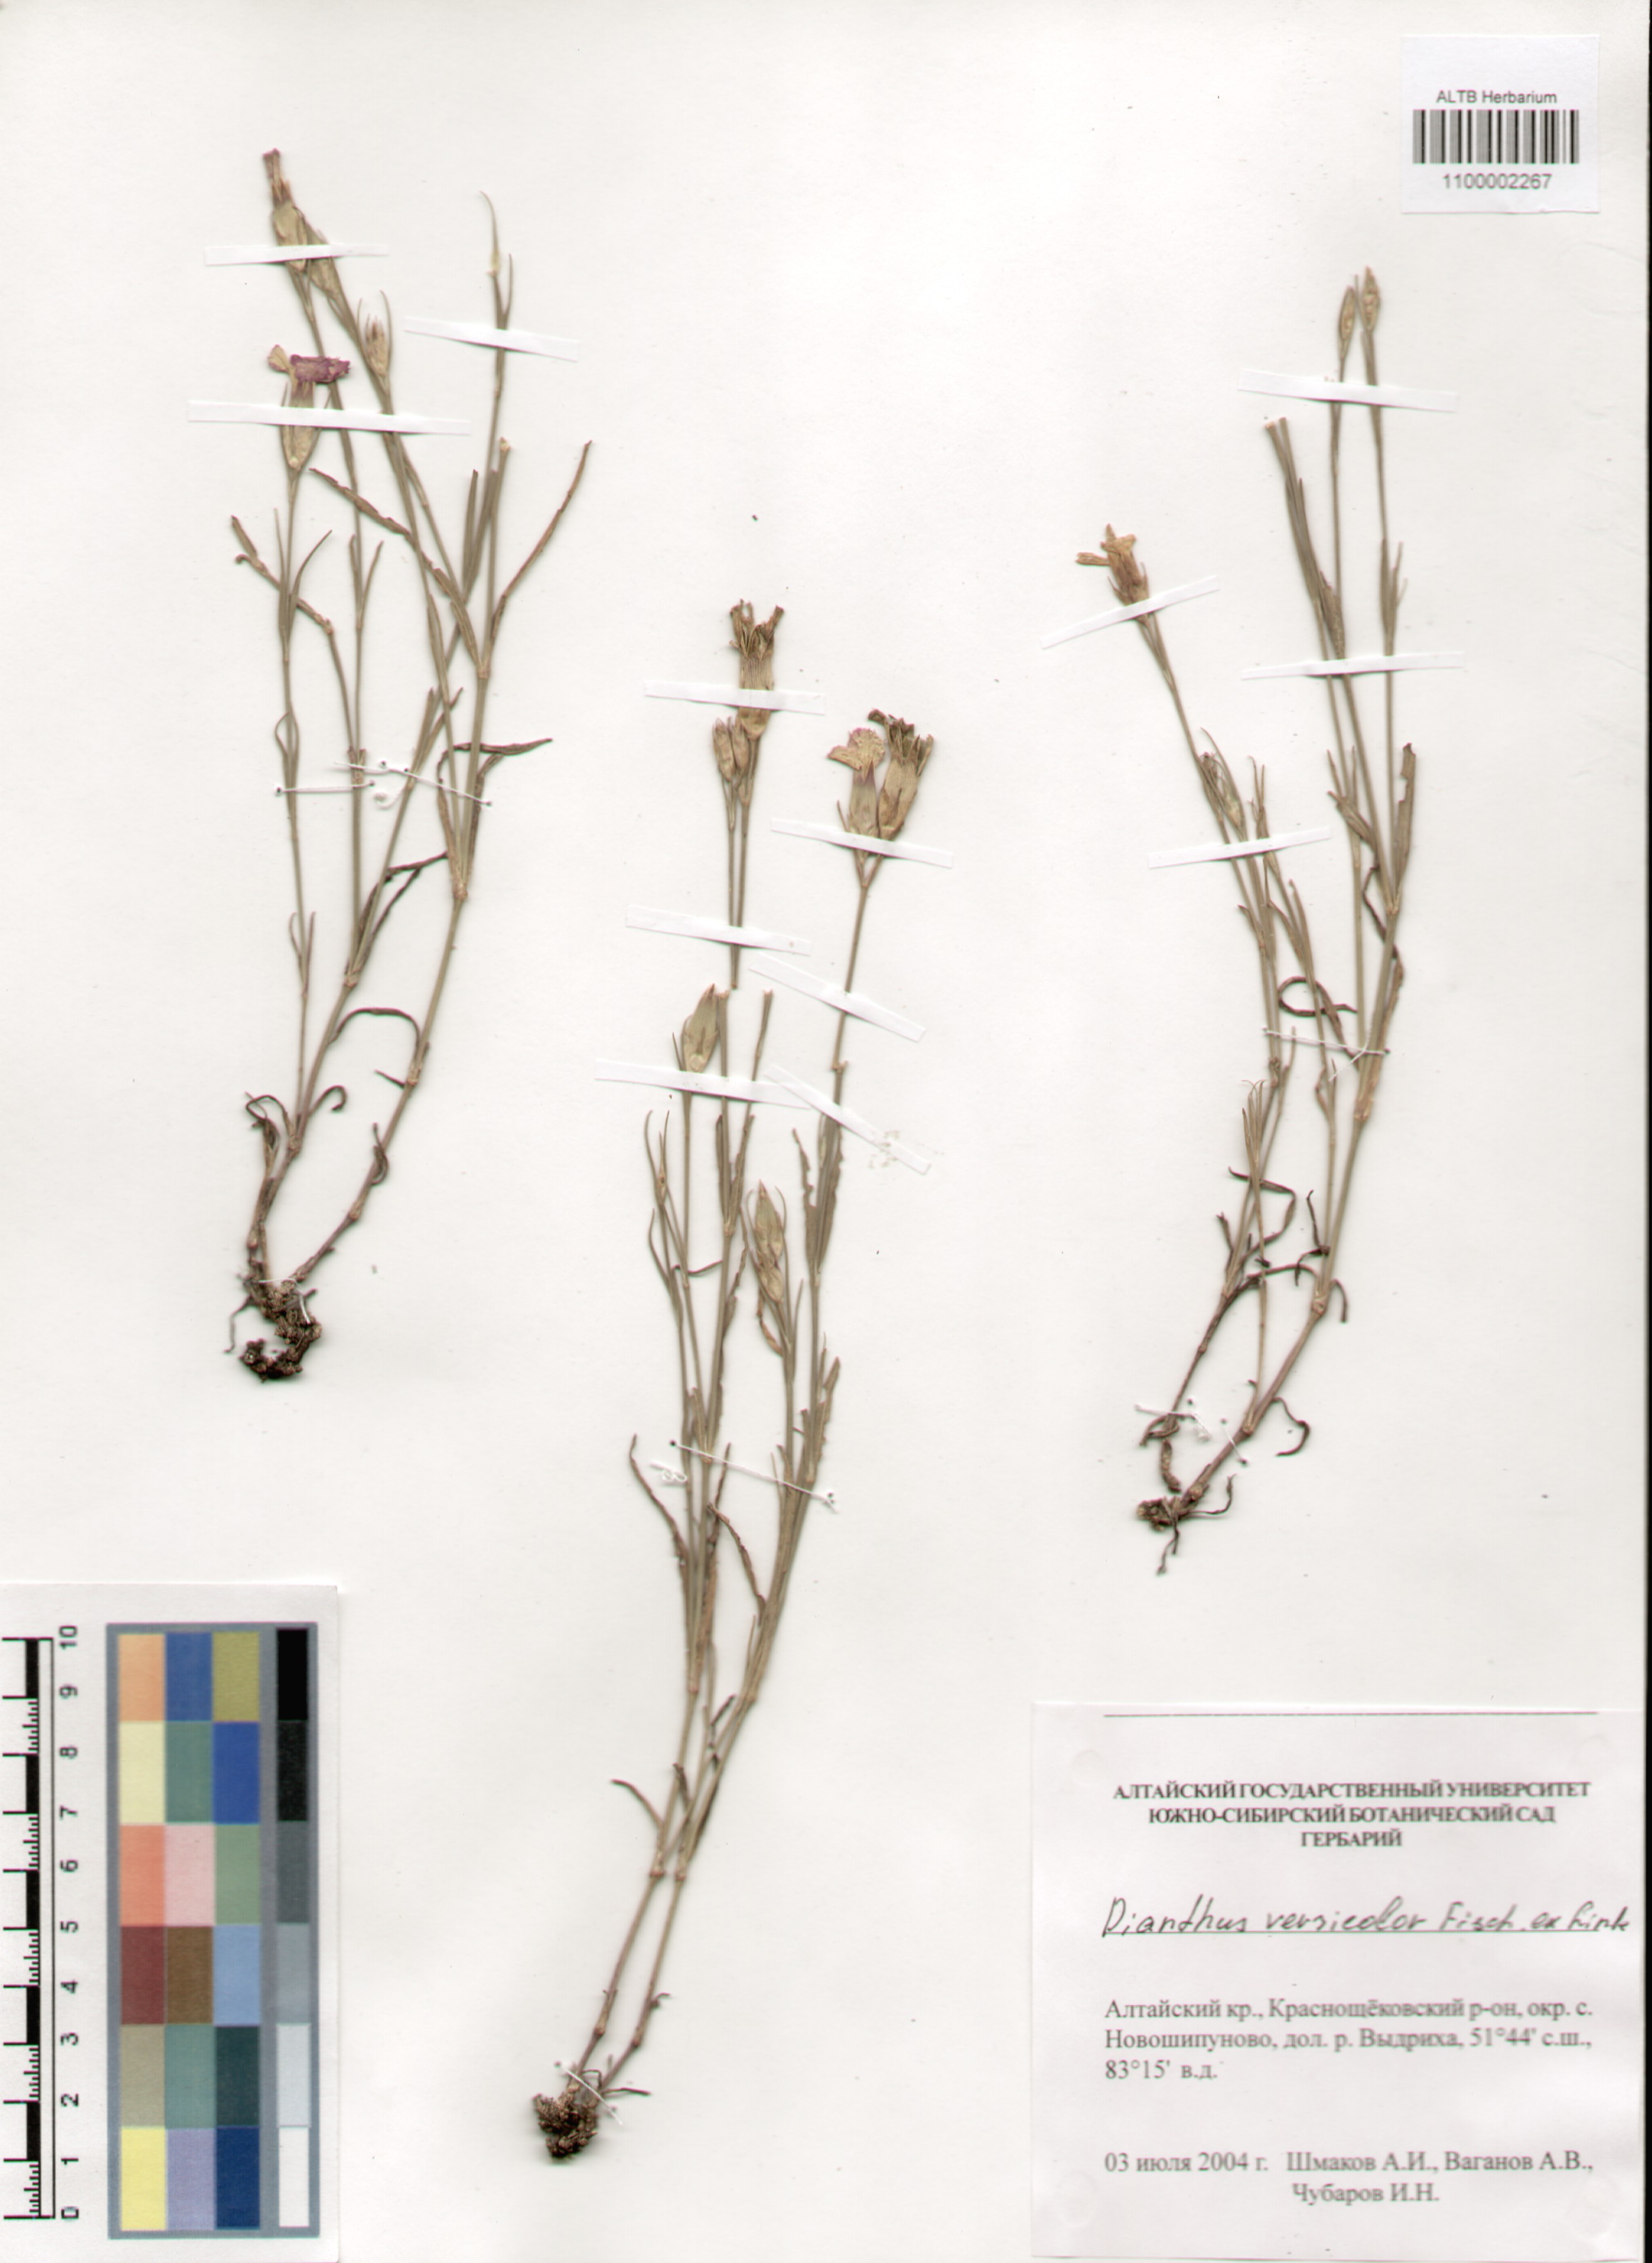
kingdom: Plantae
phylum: Tracheophyta
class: Magnoliopsida
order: Caryophyllales
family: Caryophyllaceae
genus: Dianthus
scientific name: Dianthus chinensis
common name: Rainbow pink
